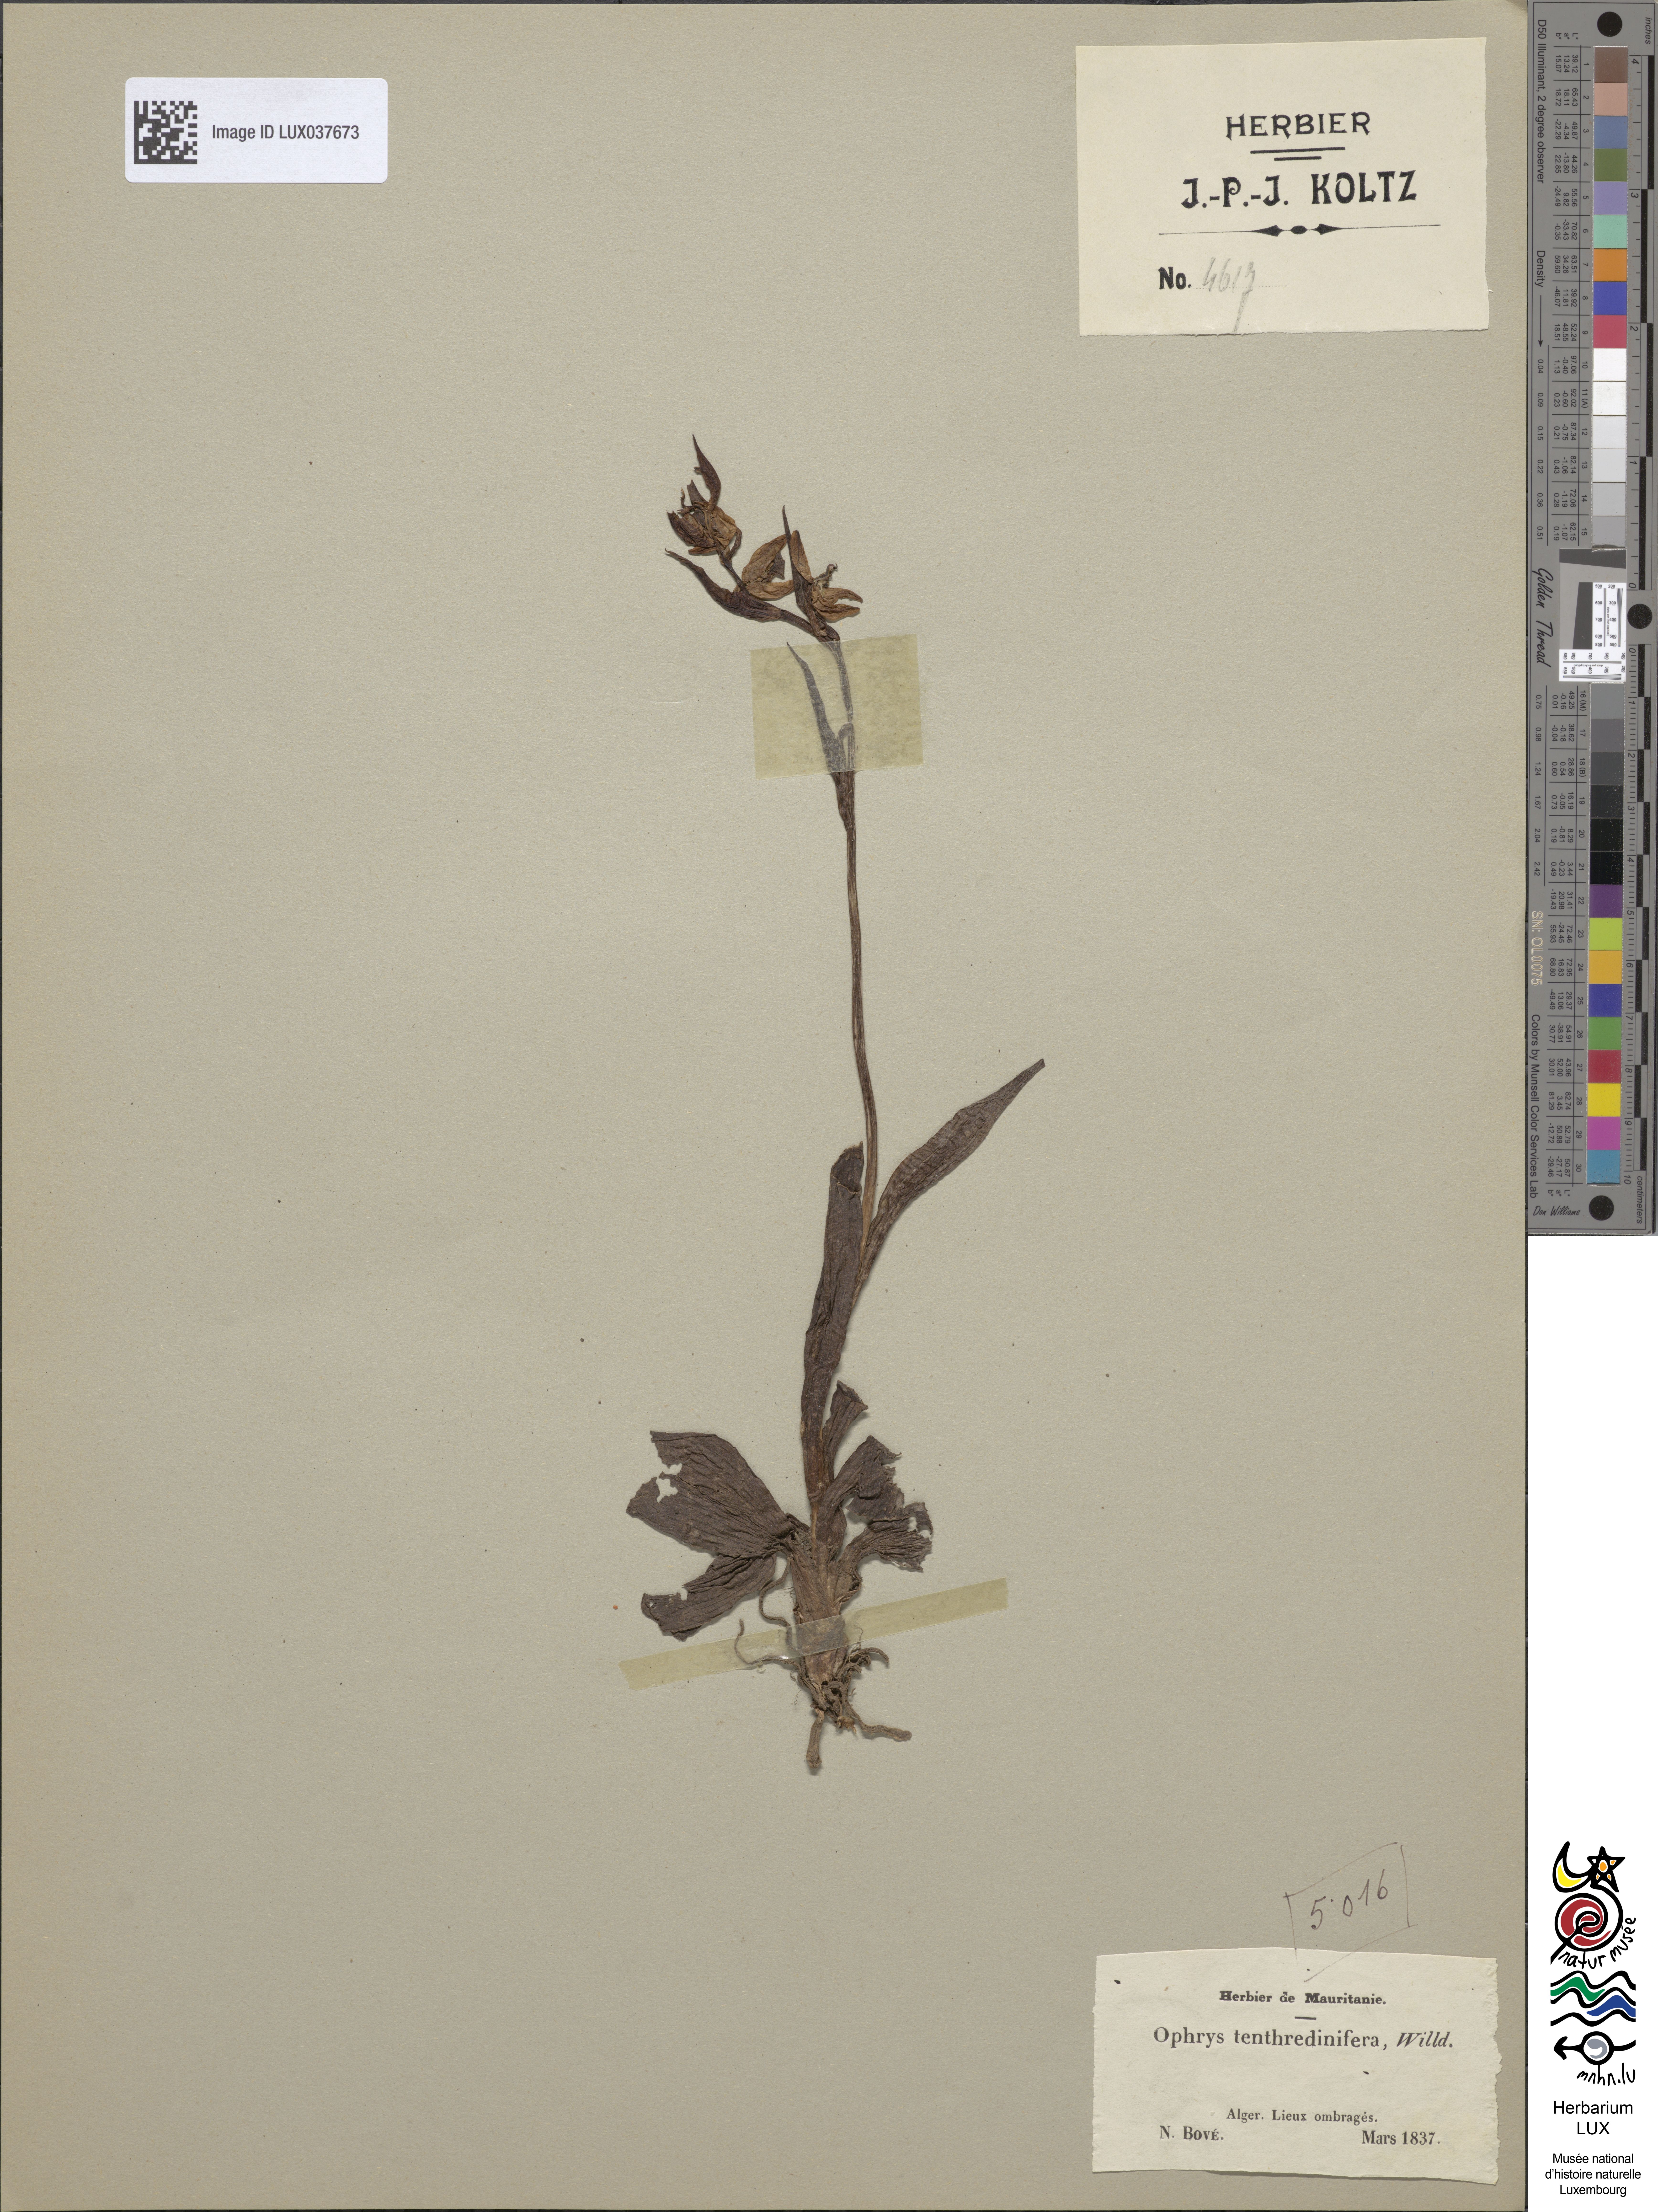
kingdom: Plantae
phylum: Tracheophyta
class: Liliopsida
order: Asparagales
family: Orchidaceae
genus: Ophrys
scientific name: Ophrys tenthredinifera
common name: Sawfly orchid
